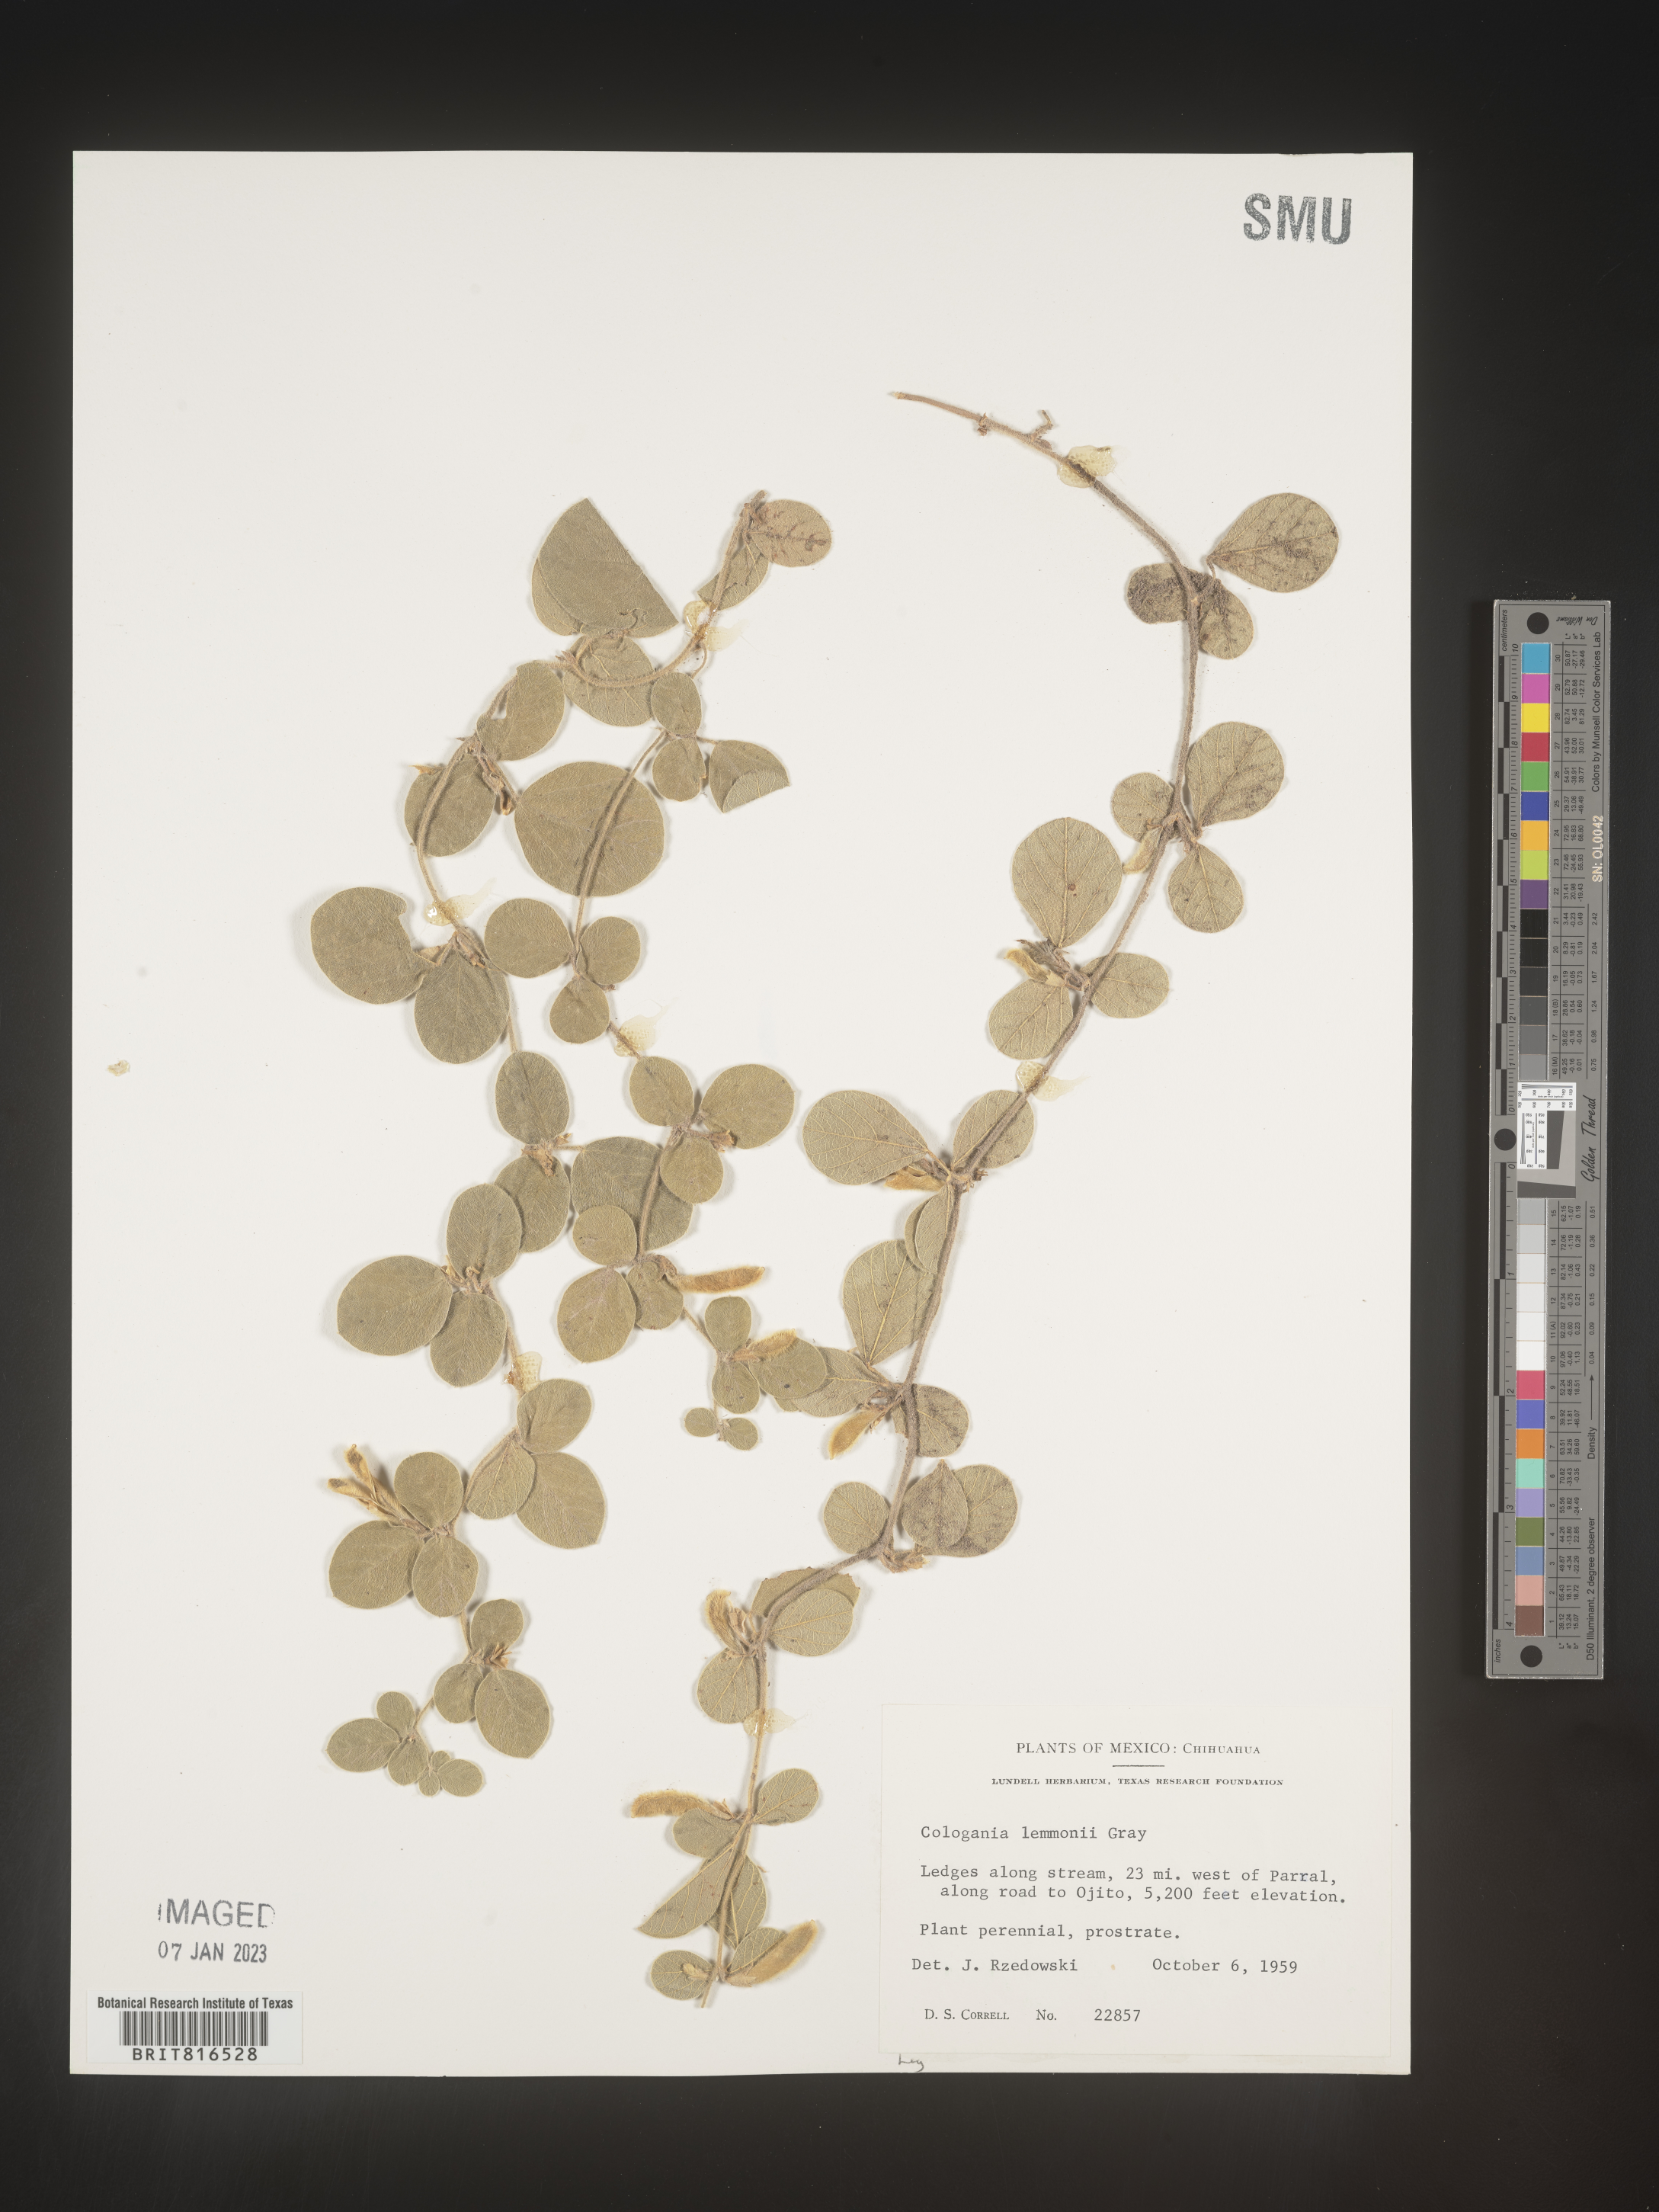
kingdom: Plantae
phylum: Tracheophyta
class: Magnoliopsida
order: Fabales
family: Fabaceae
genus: Cologania
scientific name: Cologania obovata
